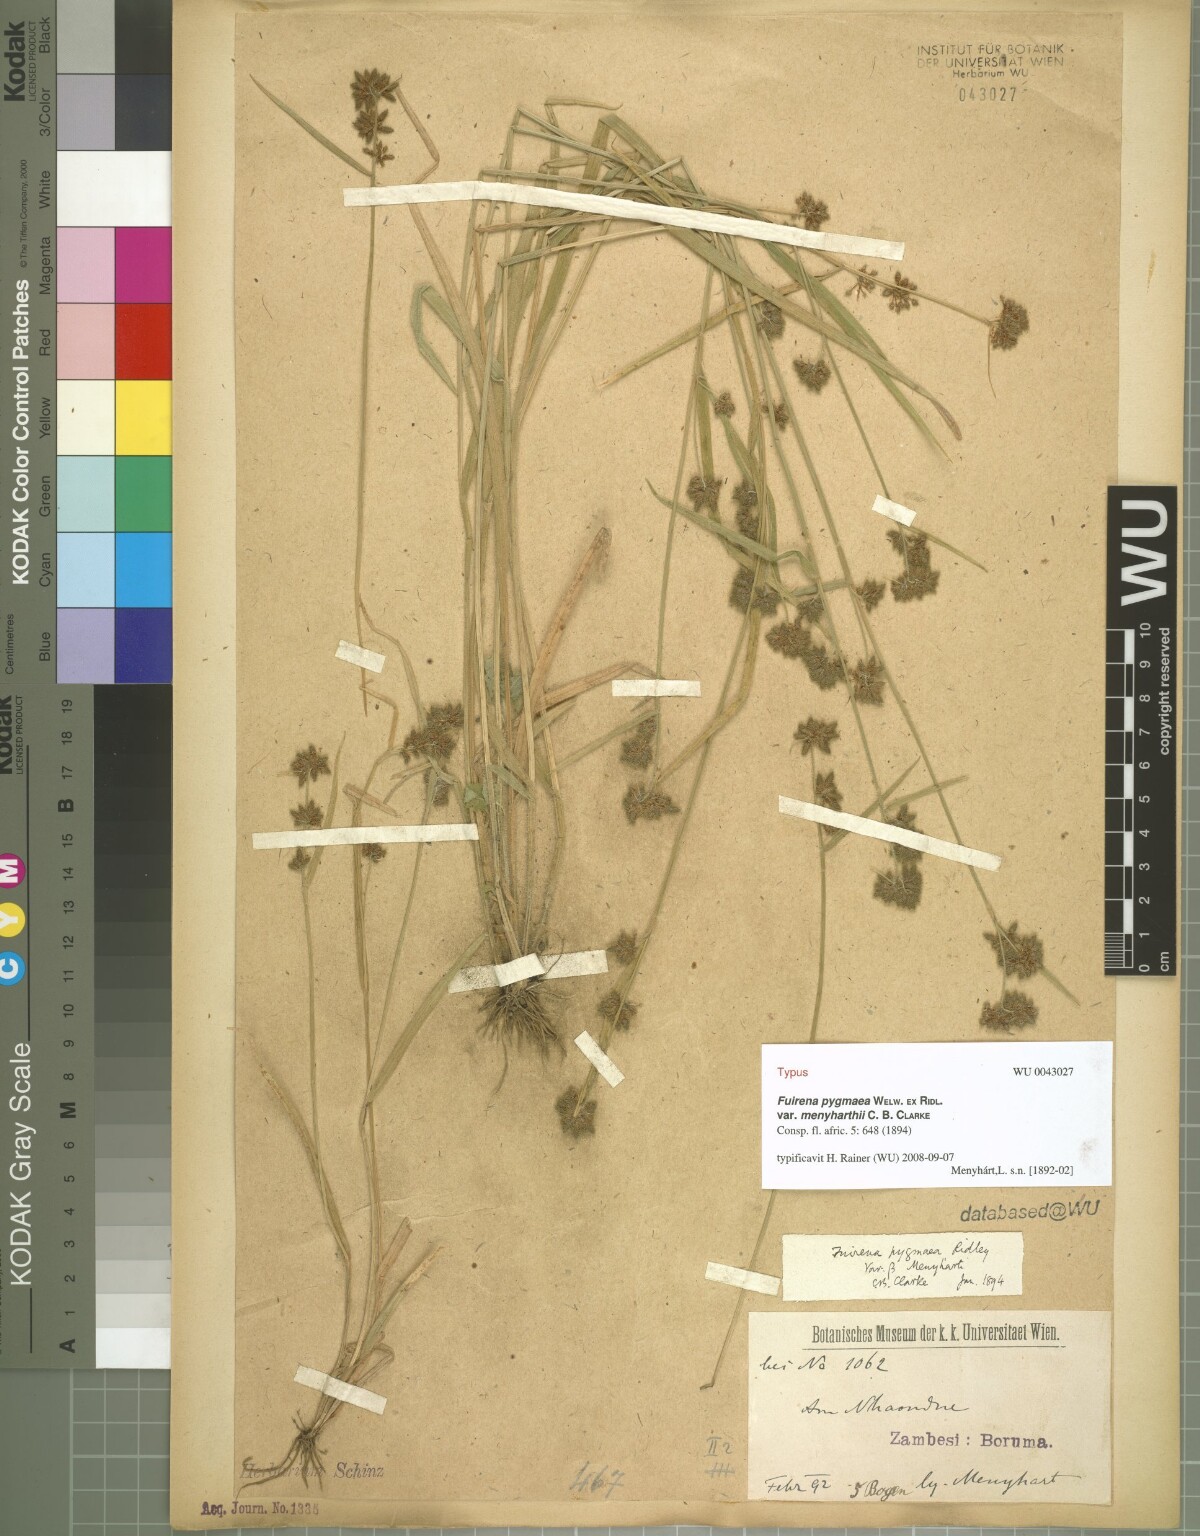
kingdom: Plantae
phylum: Tracheophyta
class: Liliopsida
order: Poales
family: Cyperaceae
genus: Fuirena
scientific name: Fuirena leptostachya
